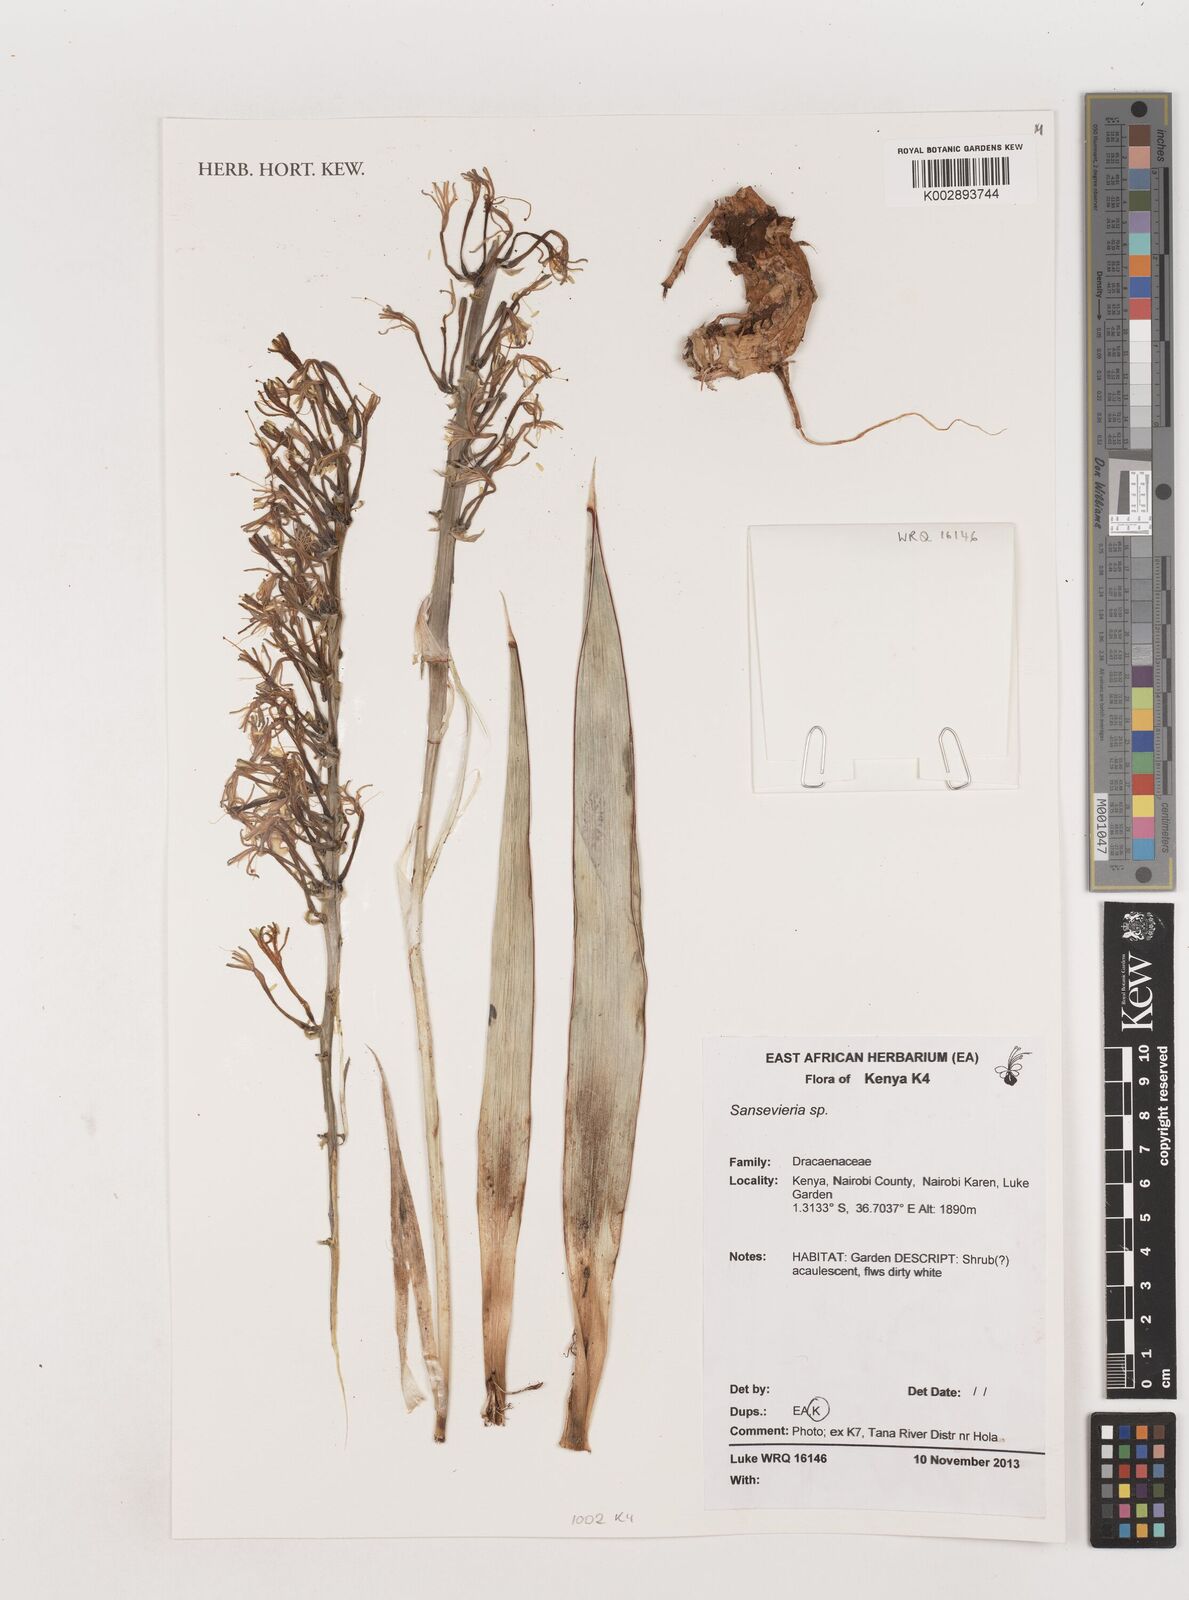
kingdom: Plantae
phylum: Tracheophyta
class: Liliopsida
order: Asparagales
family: Asparagaceae
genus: Dracaena
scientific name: Dracaena
